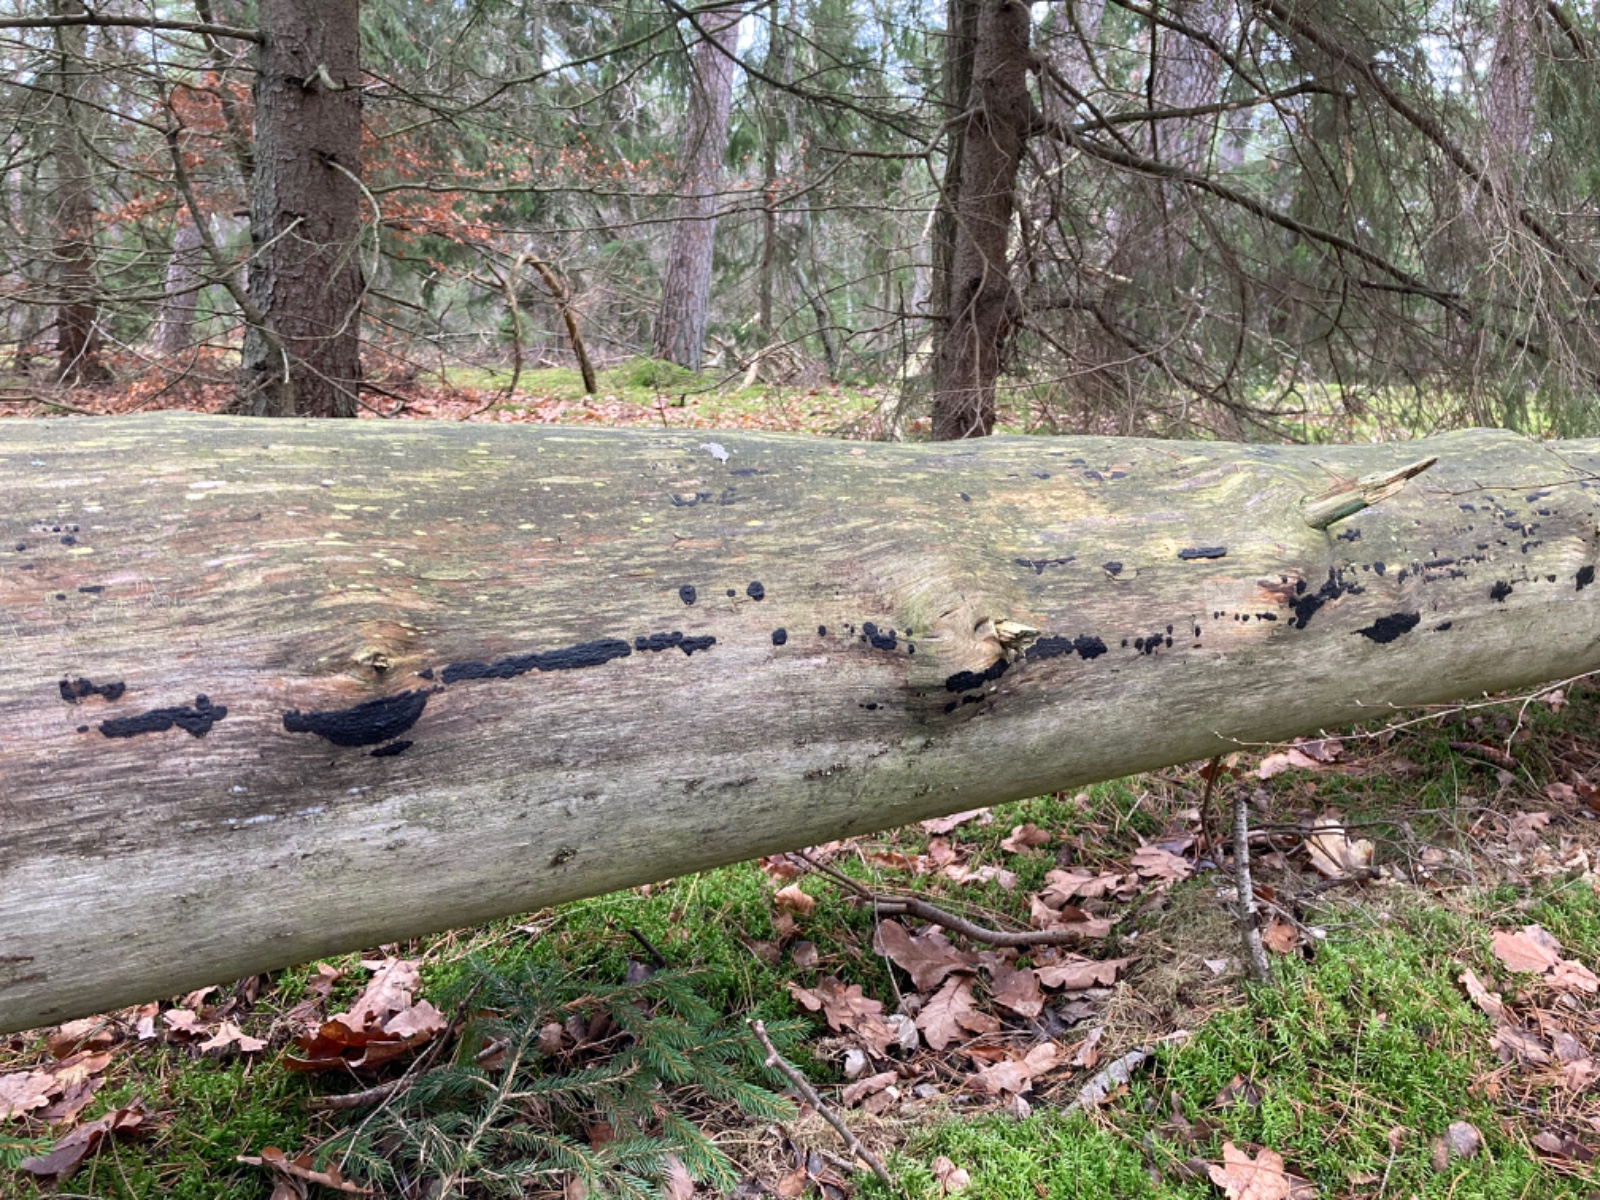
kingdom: Fungi
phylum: Basidiomycota
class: Agaricomycetes
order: Auriculariales
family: Auriculariaceae
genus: Exidia
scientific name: Exidia pithya
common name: gran-bævretop
